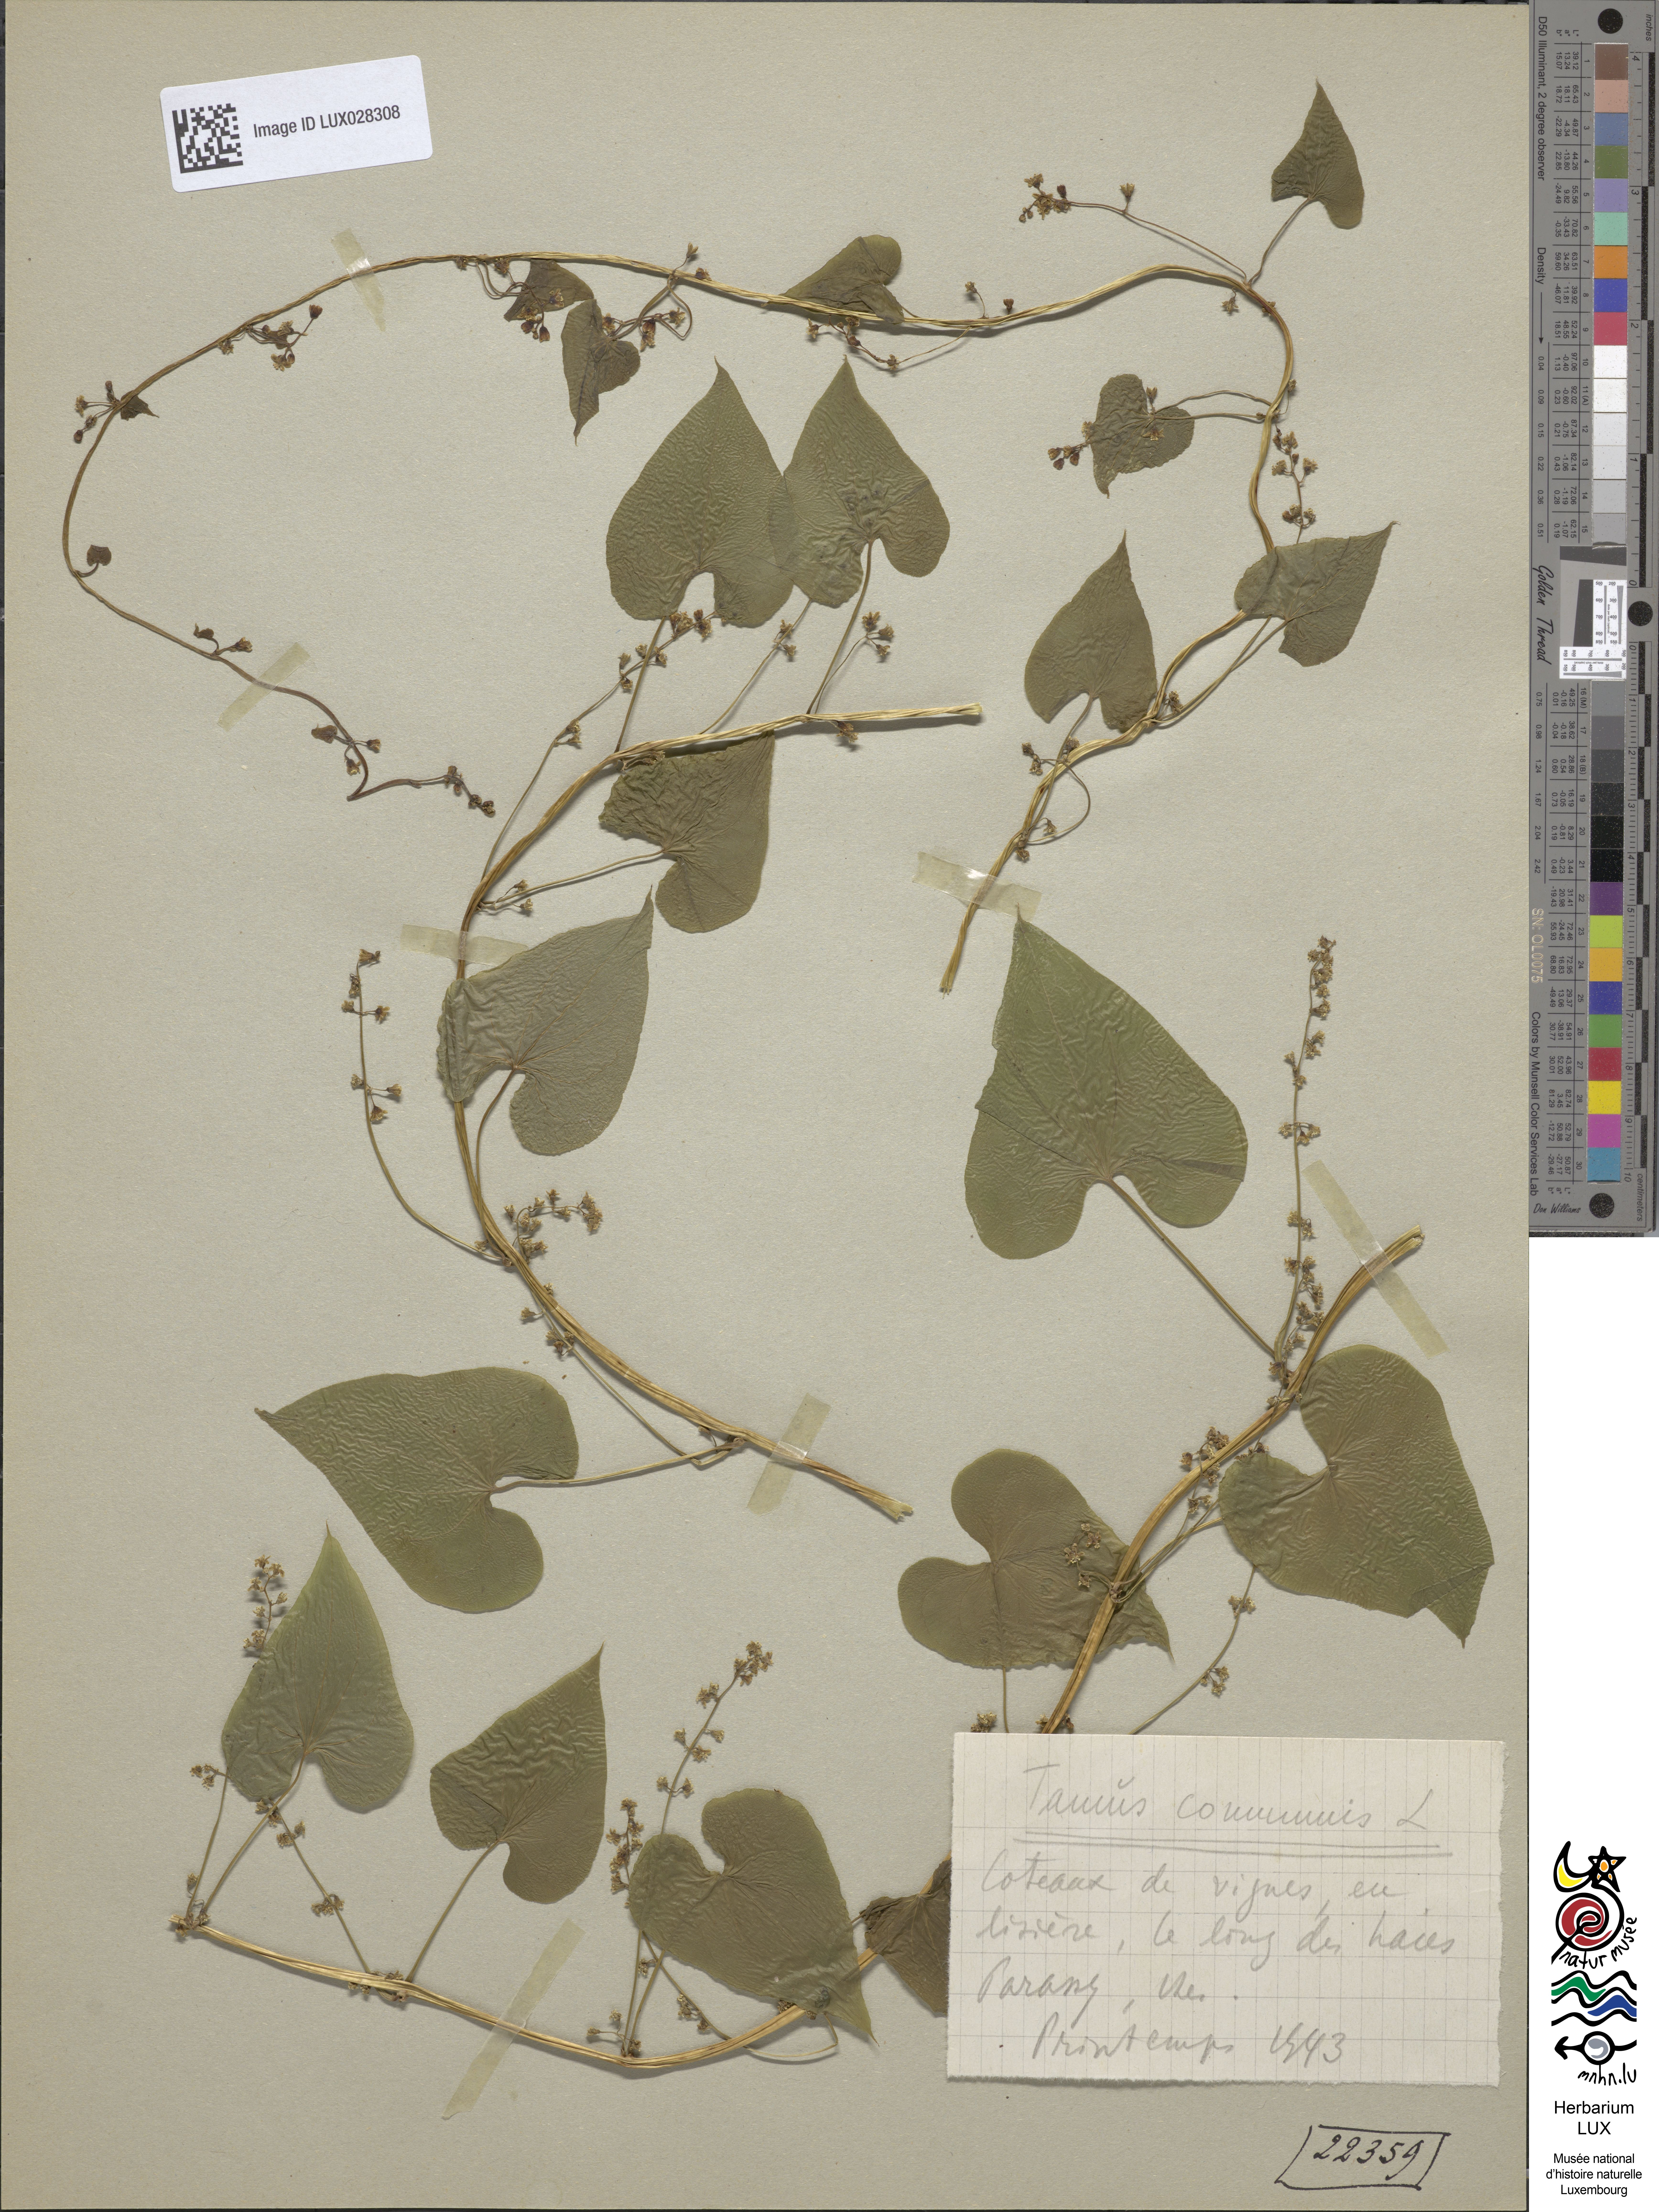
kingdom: Plantae
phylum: Tracheophyta
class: Liliopsida
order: Dioscoreales
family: Dioscoreaceae
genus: Dioscorea
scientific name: Dioscorea communis
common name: Black-bindweed
